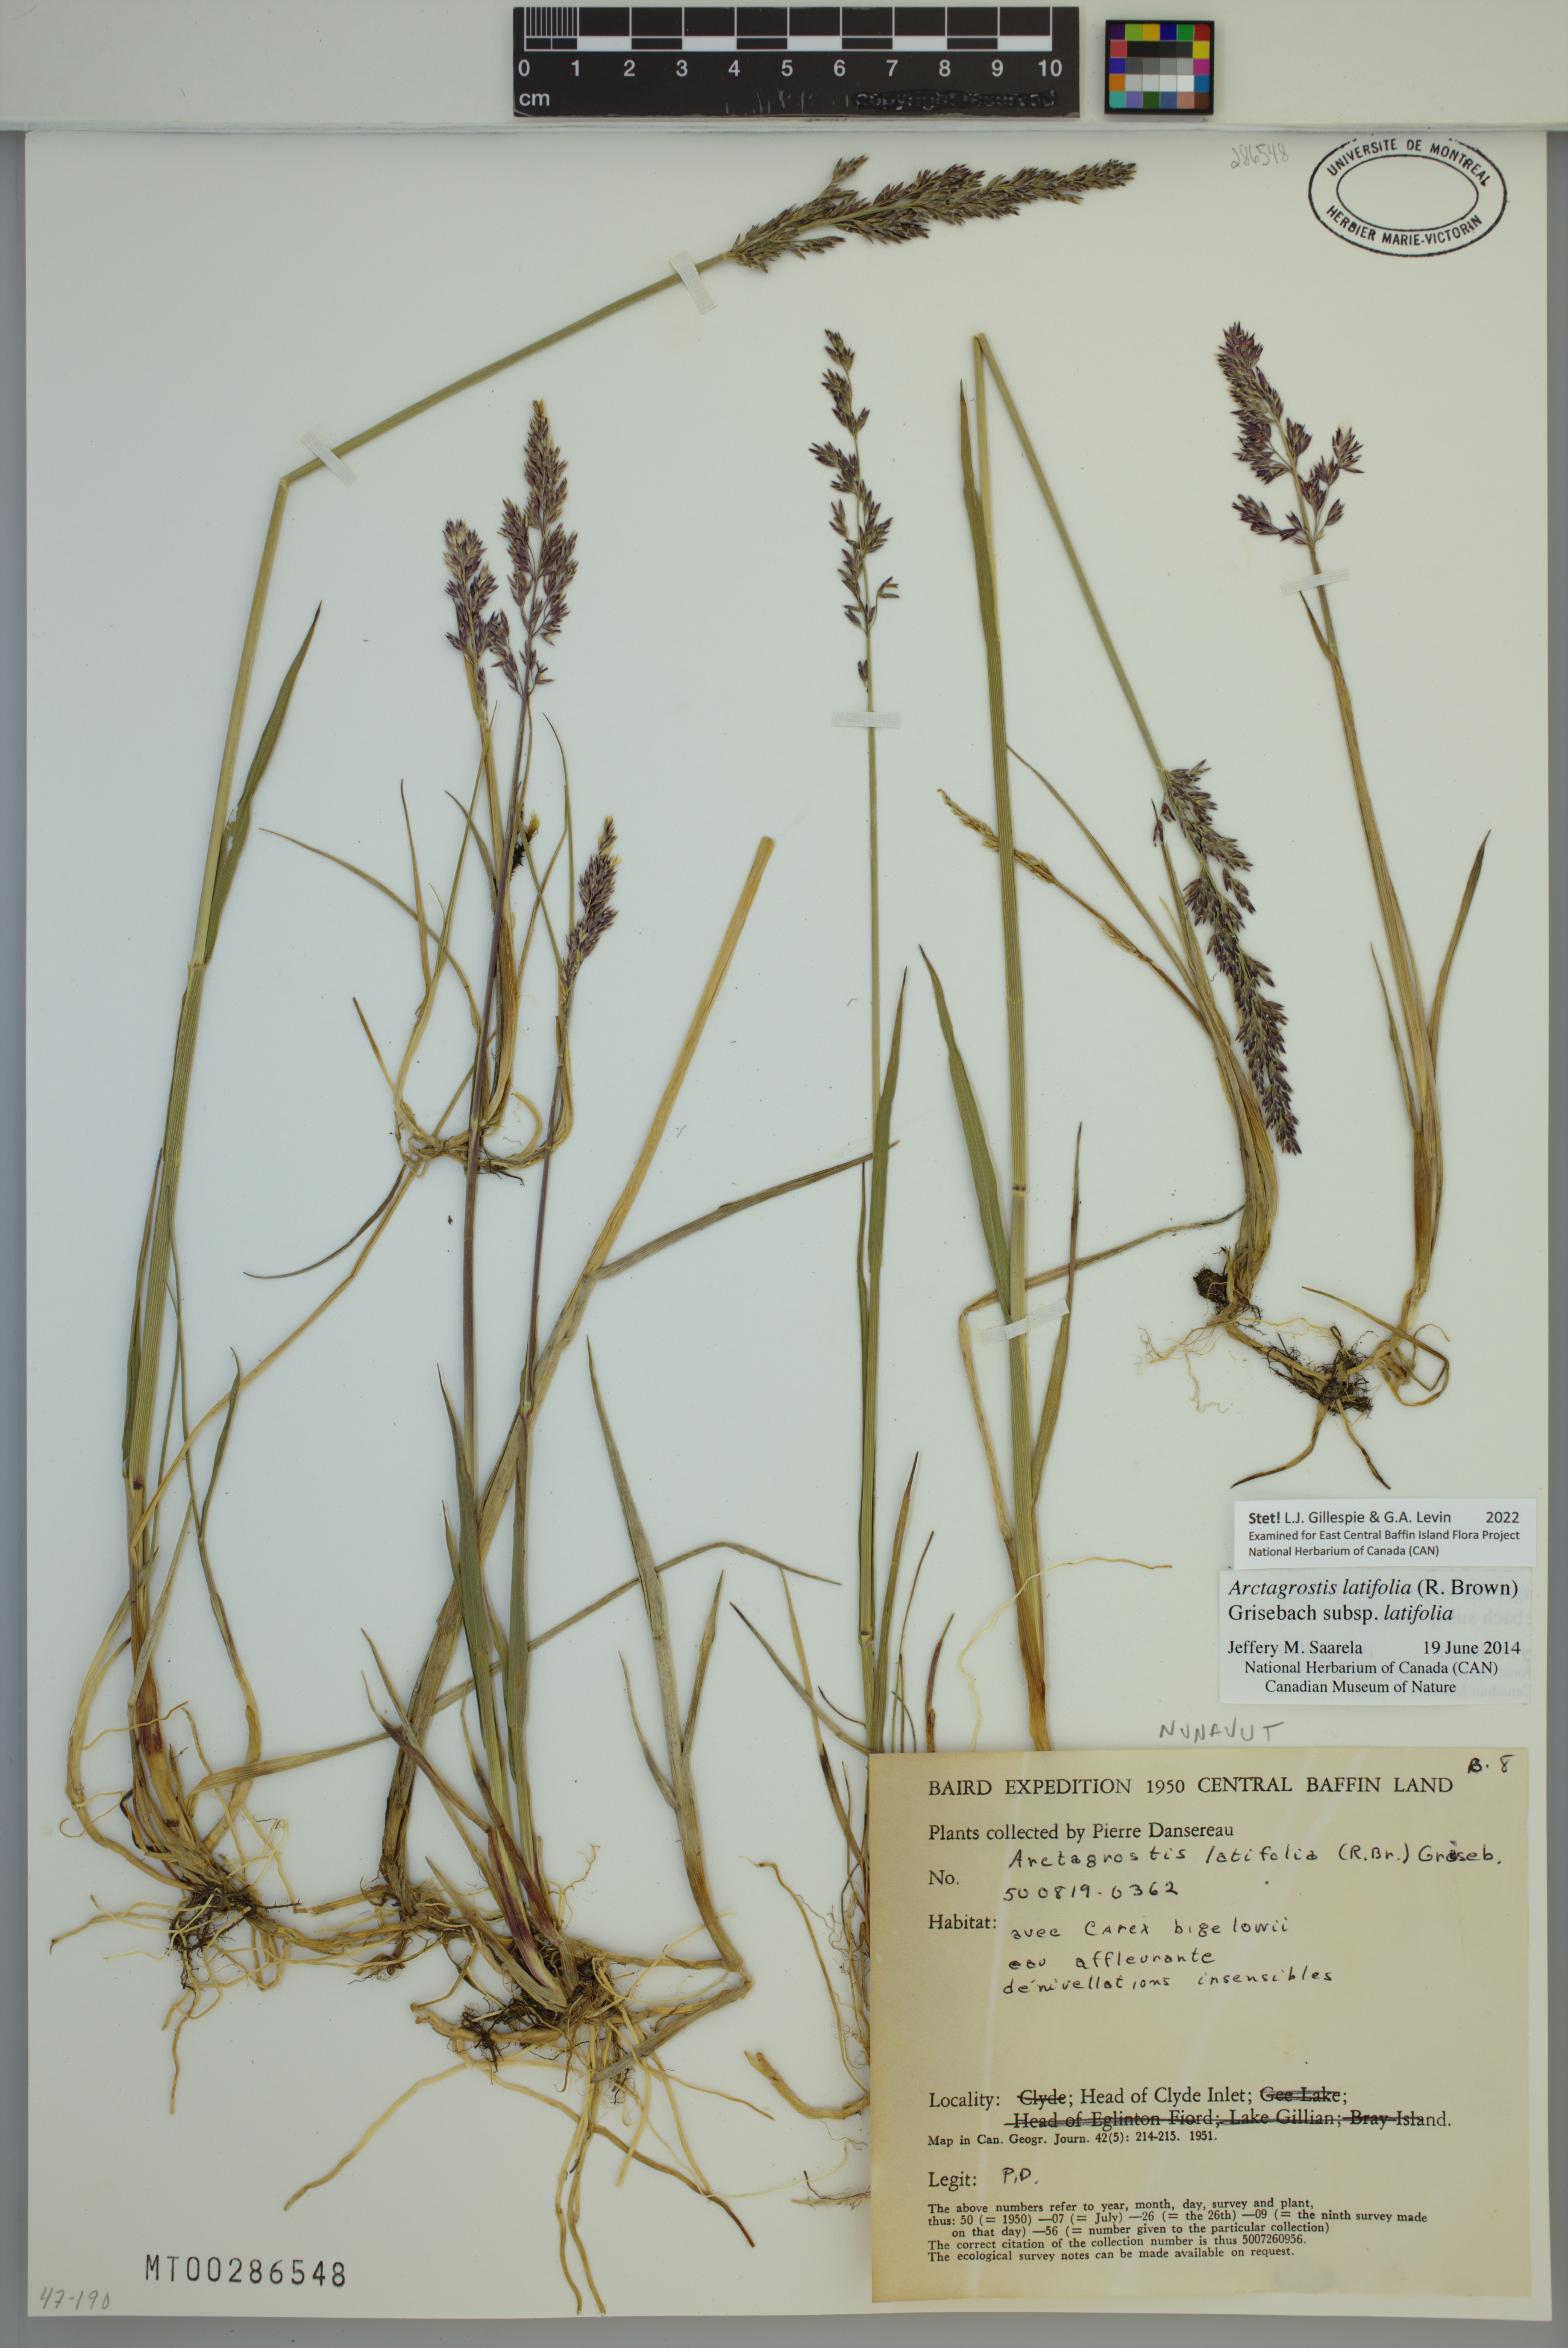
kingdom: Plantae
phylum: Tracheophyta
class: Liliopsida
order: Poales
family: Poaceae
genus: Arctagrostis
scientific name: Arctagrostis latifolia
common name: Arctic grass
